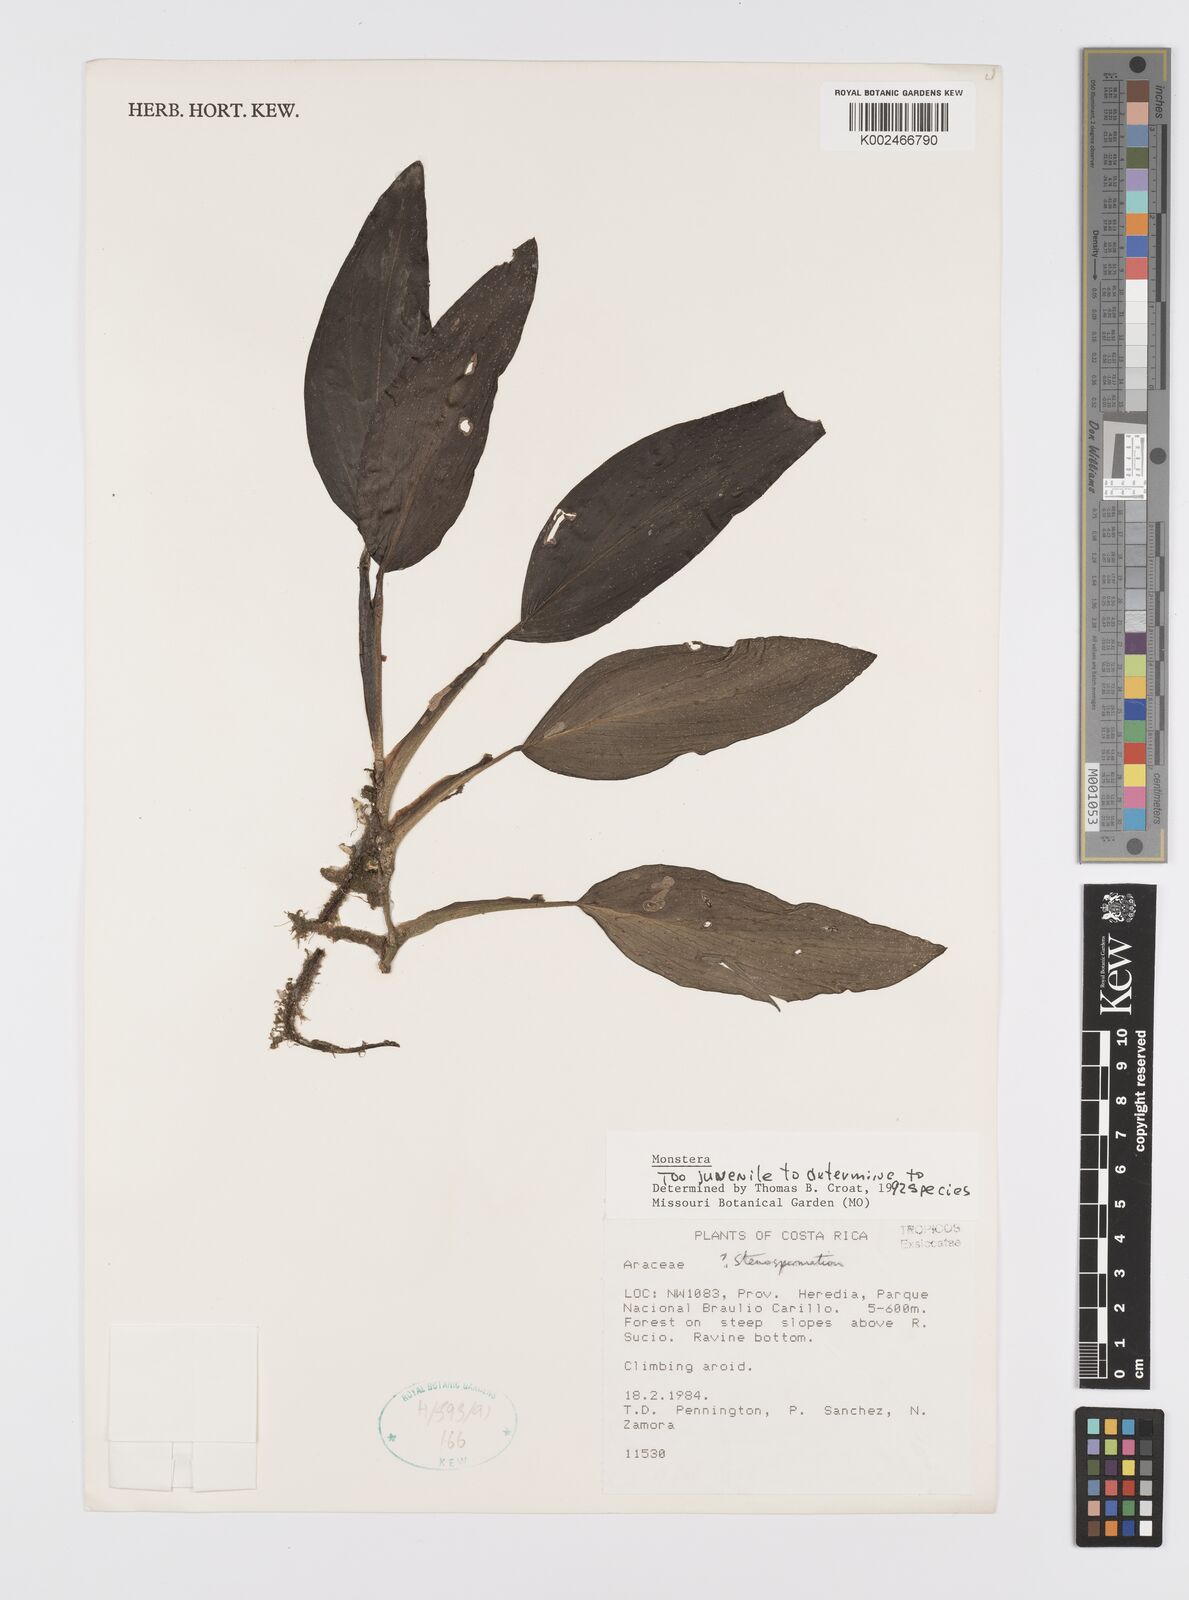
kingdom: Plantae
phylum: Tracheophyta
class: Liliopsida
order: Alismatales
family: Araceae
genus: Monstera
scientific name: Monstera
